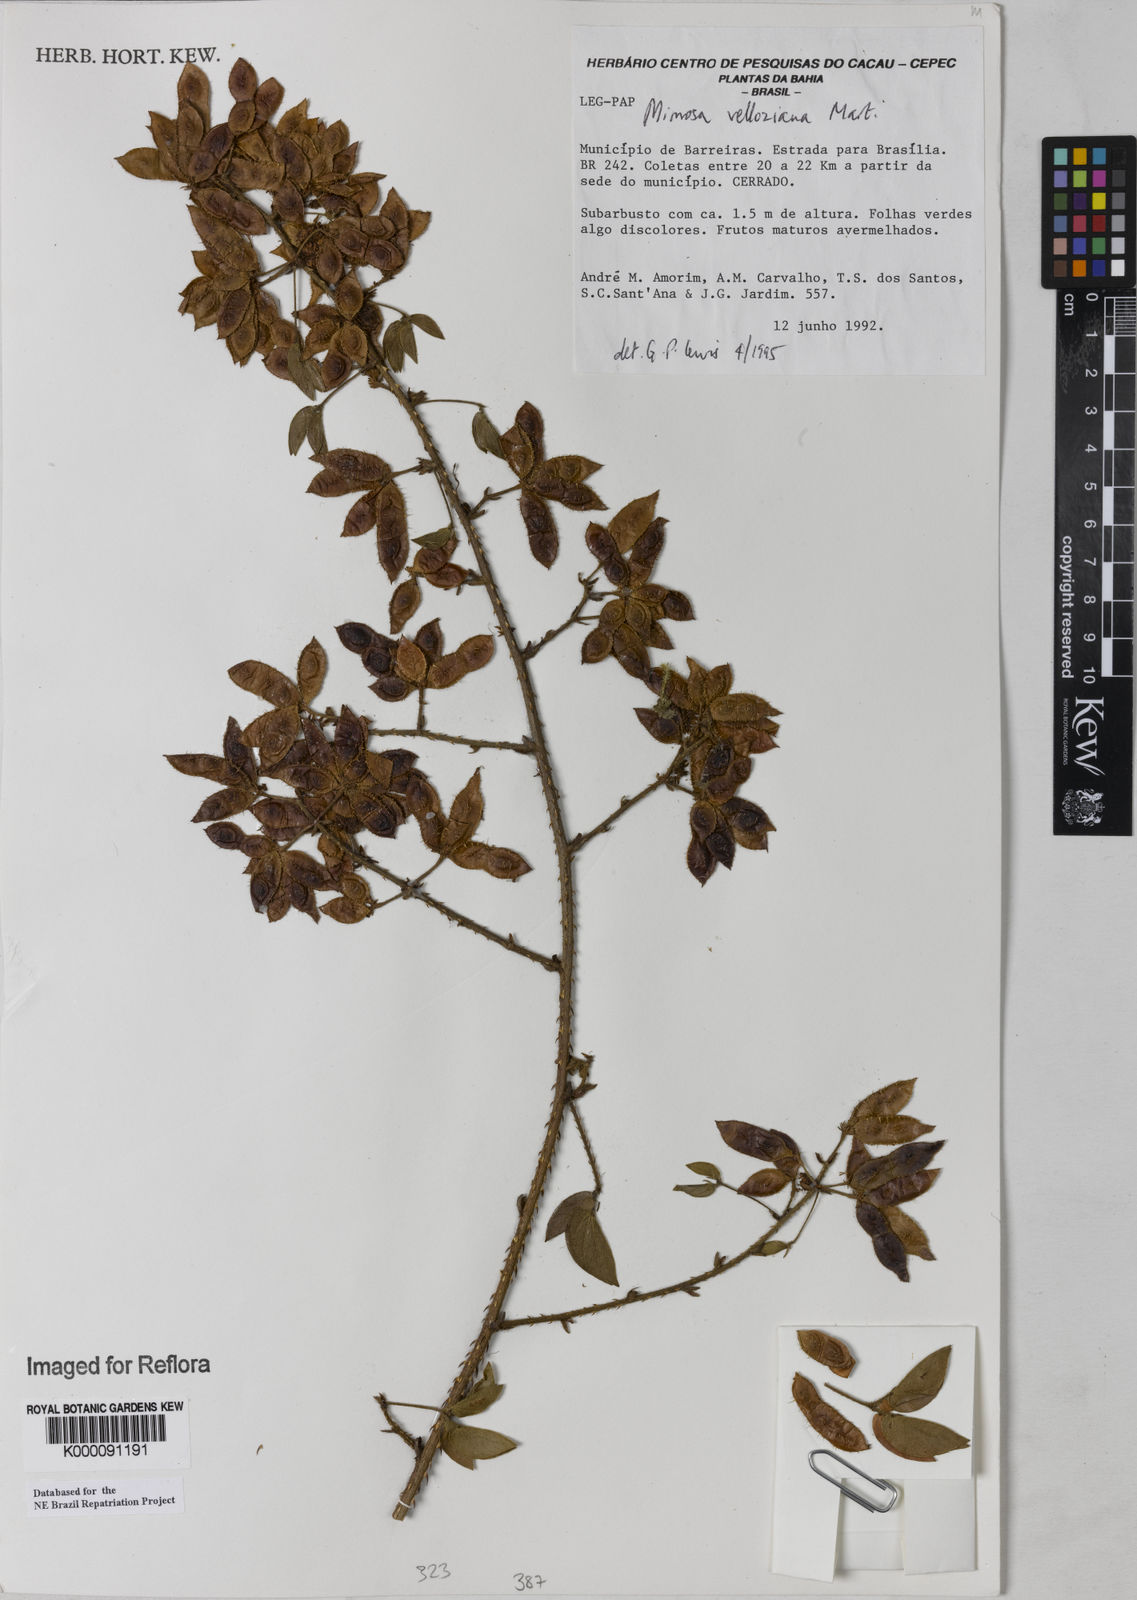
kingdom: Plantae
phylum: Tracheophyta
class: Magnoliopsida
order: Fabales
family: Fabaceae
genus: Mimosa
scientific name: Mimosa velloziana
